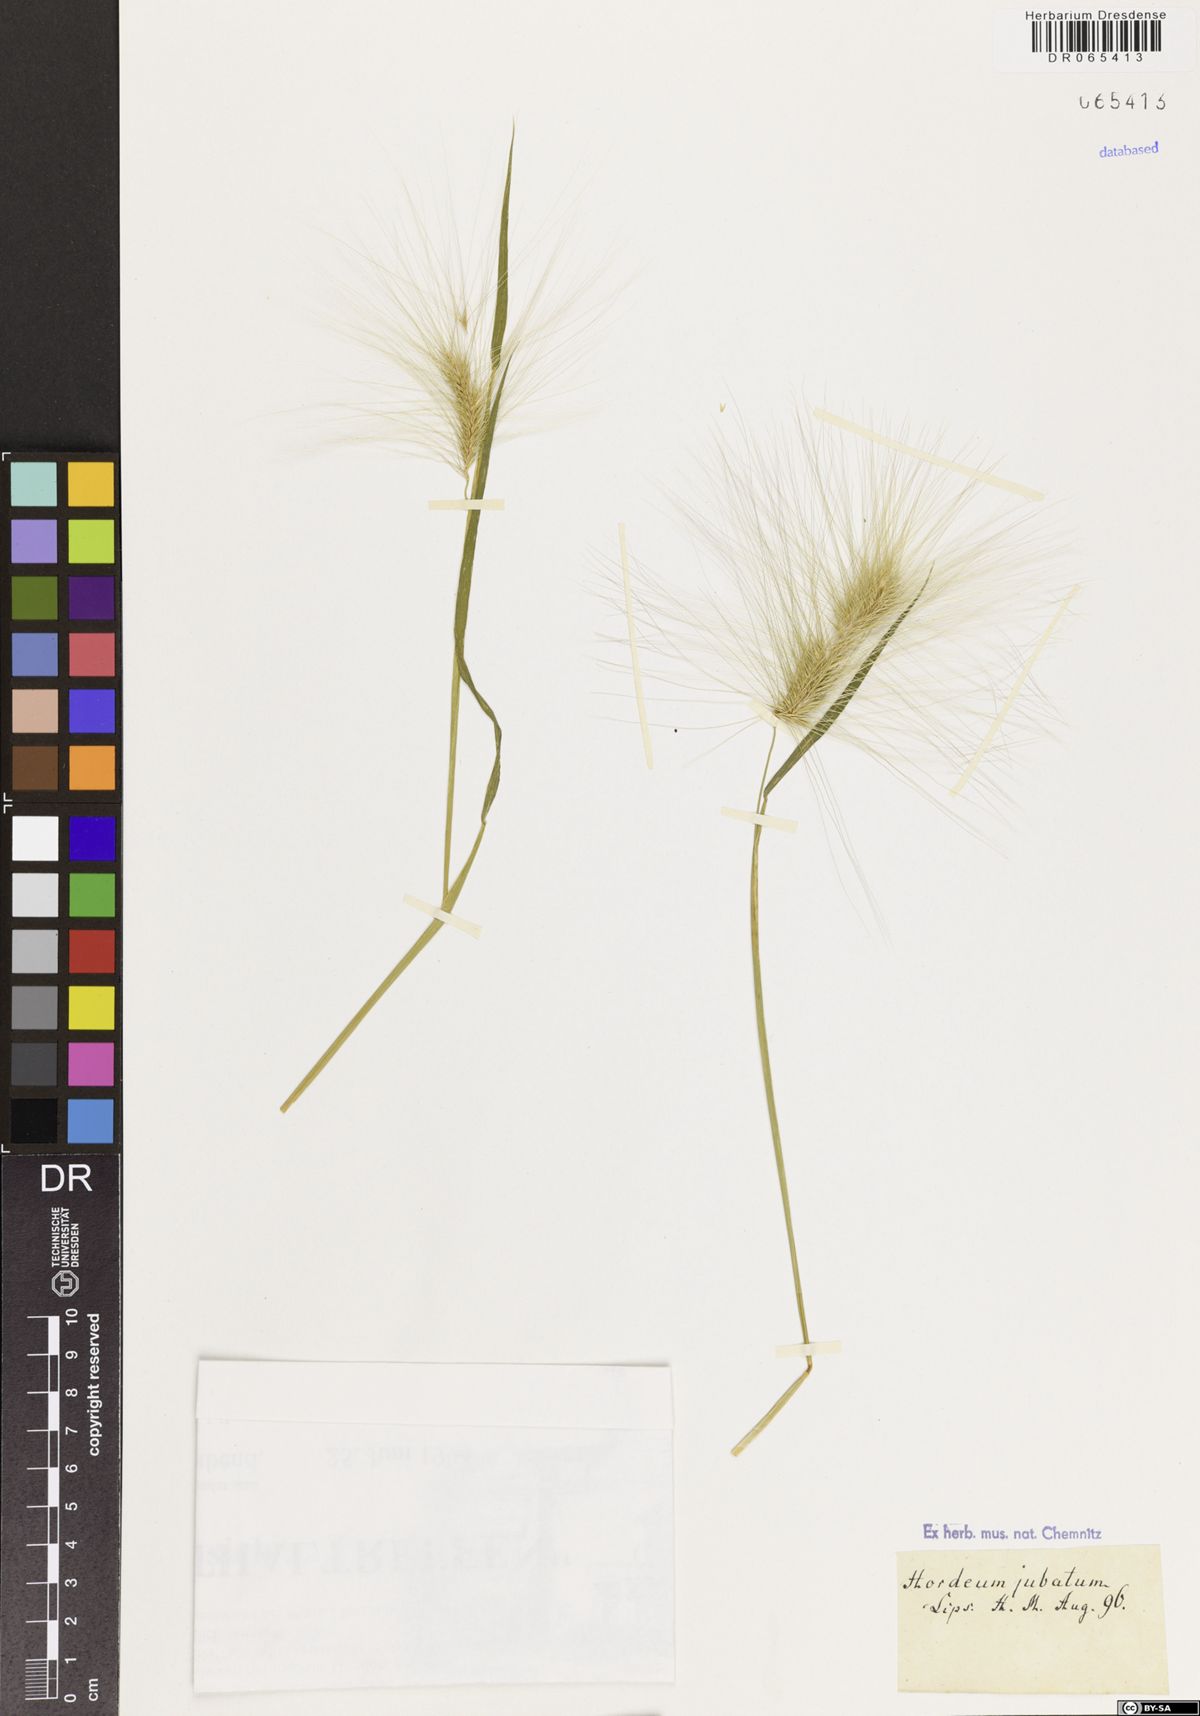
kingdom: Plantae
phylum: Tracheophyta
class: Liliopsida
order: Poales
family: Poaceae
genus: Hordeum
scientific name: Hordeum jubatum
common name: Foxtail barley
